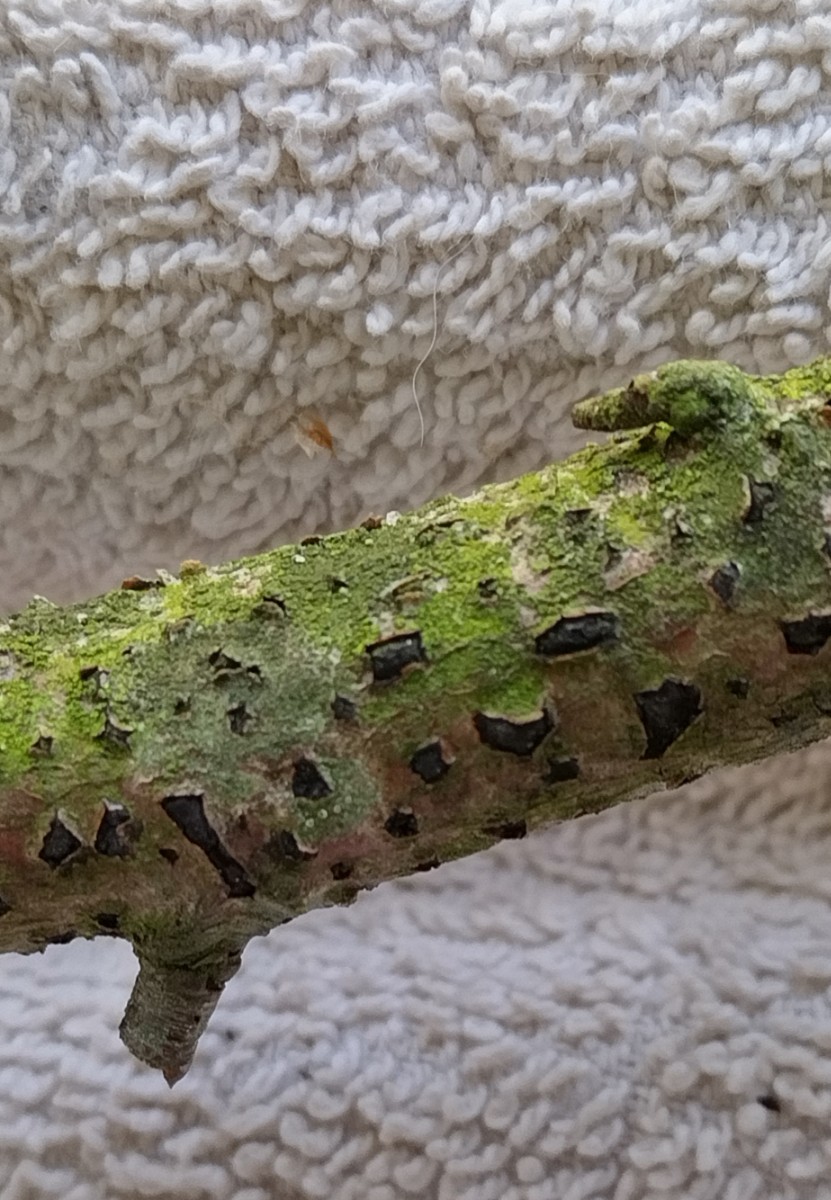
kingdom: Fungi
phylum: Ascomycota
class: Sordariomycetes
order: Xylariales
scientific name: Xylariales
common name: stødsvampordenen
